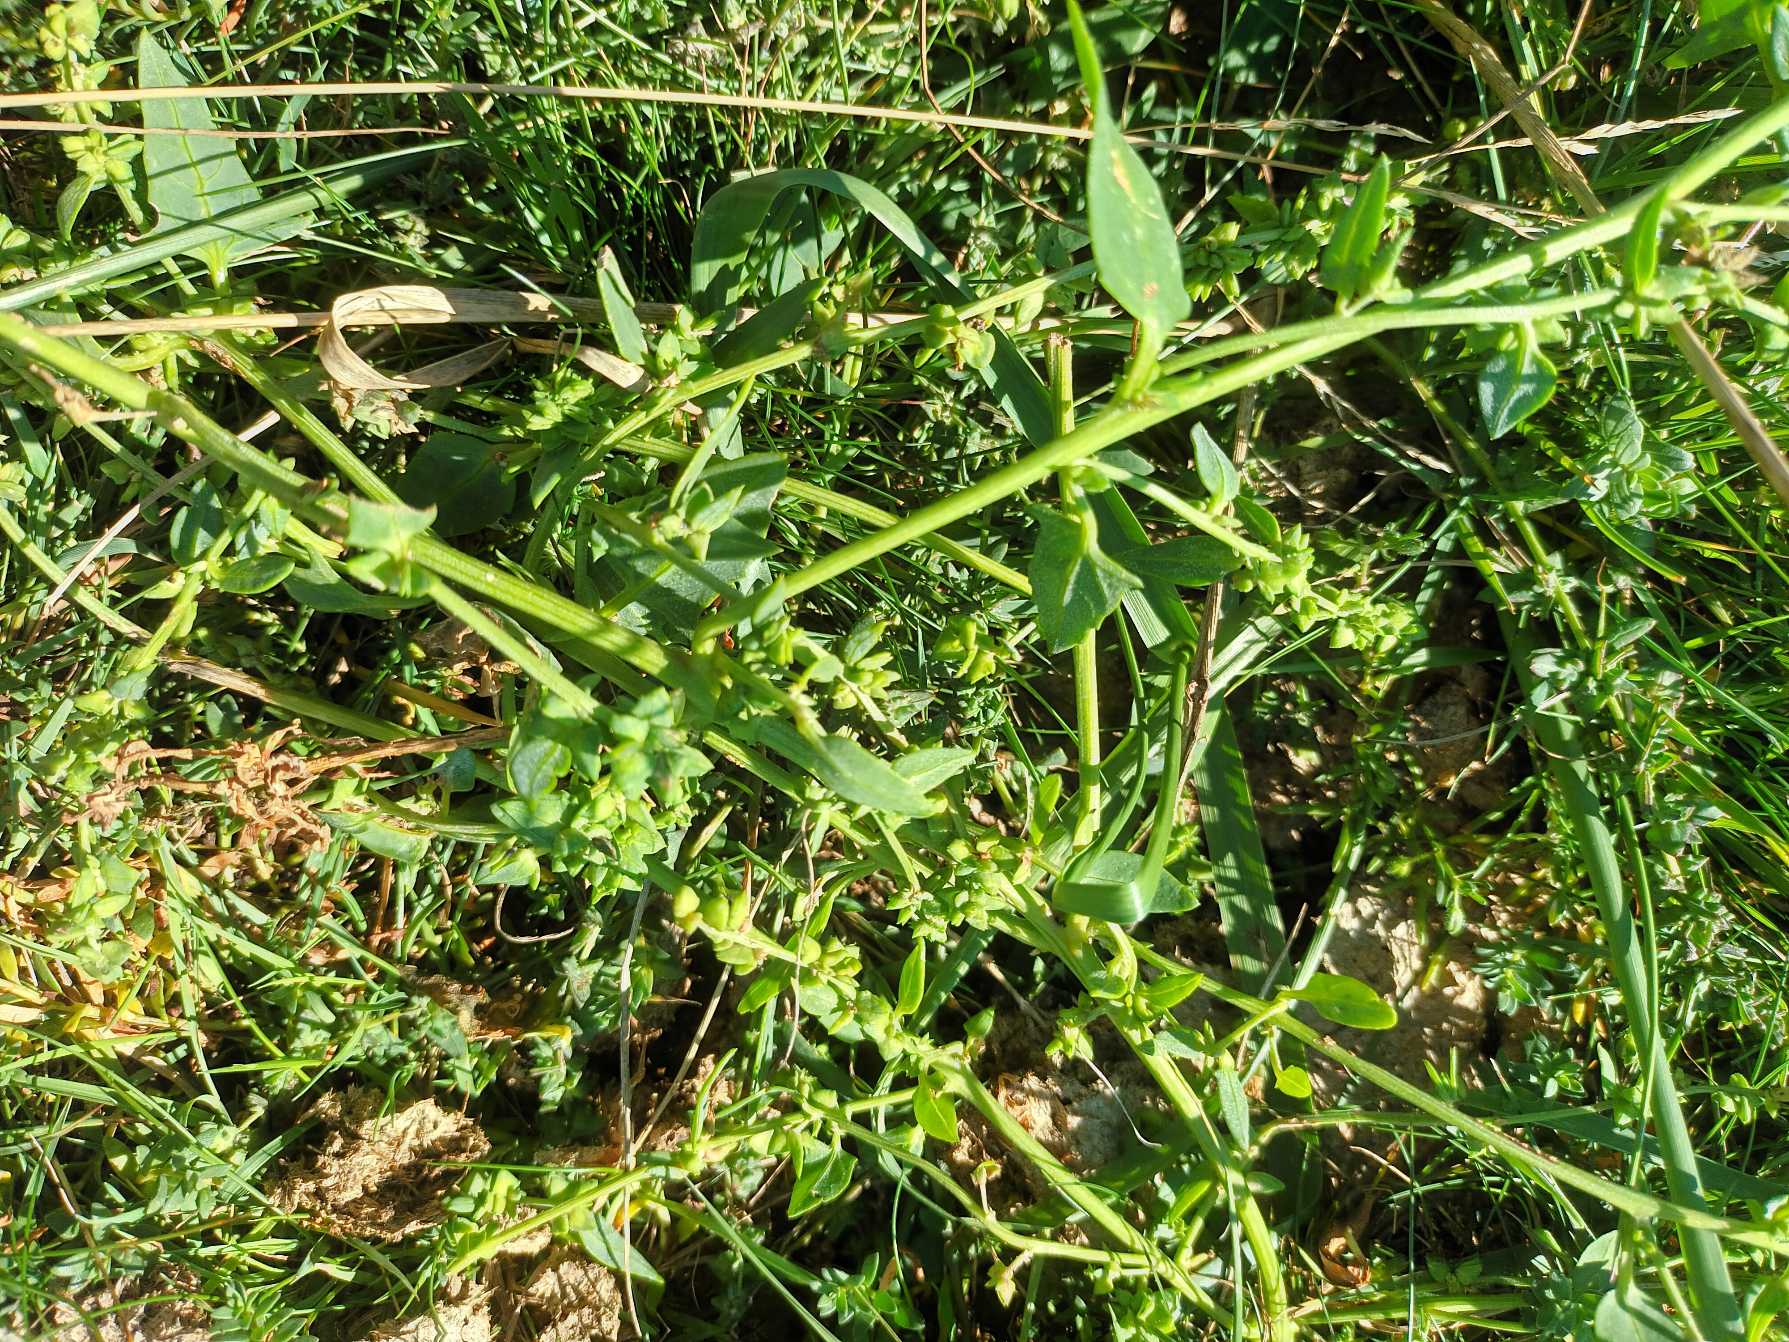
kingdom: Plantae
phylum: Tracheophyta
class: Magnoliopsida
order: Caryophyllales
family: Amaranthaceae
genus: Atriplex
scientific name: Atriplex longipes
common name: Stilk-mælde
